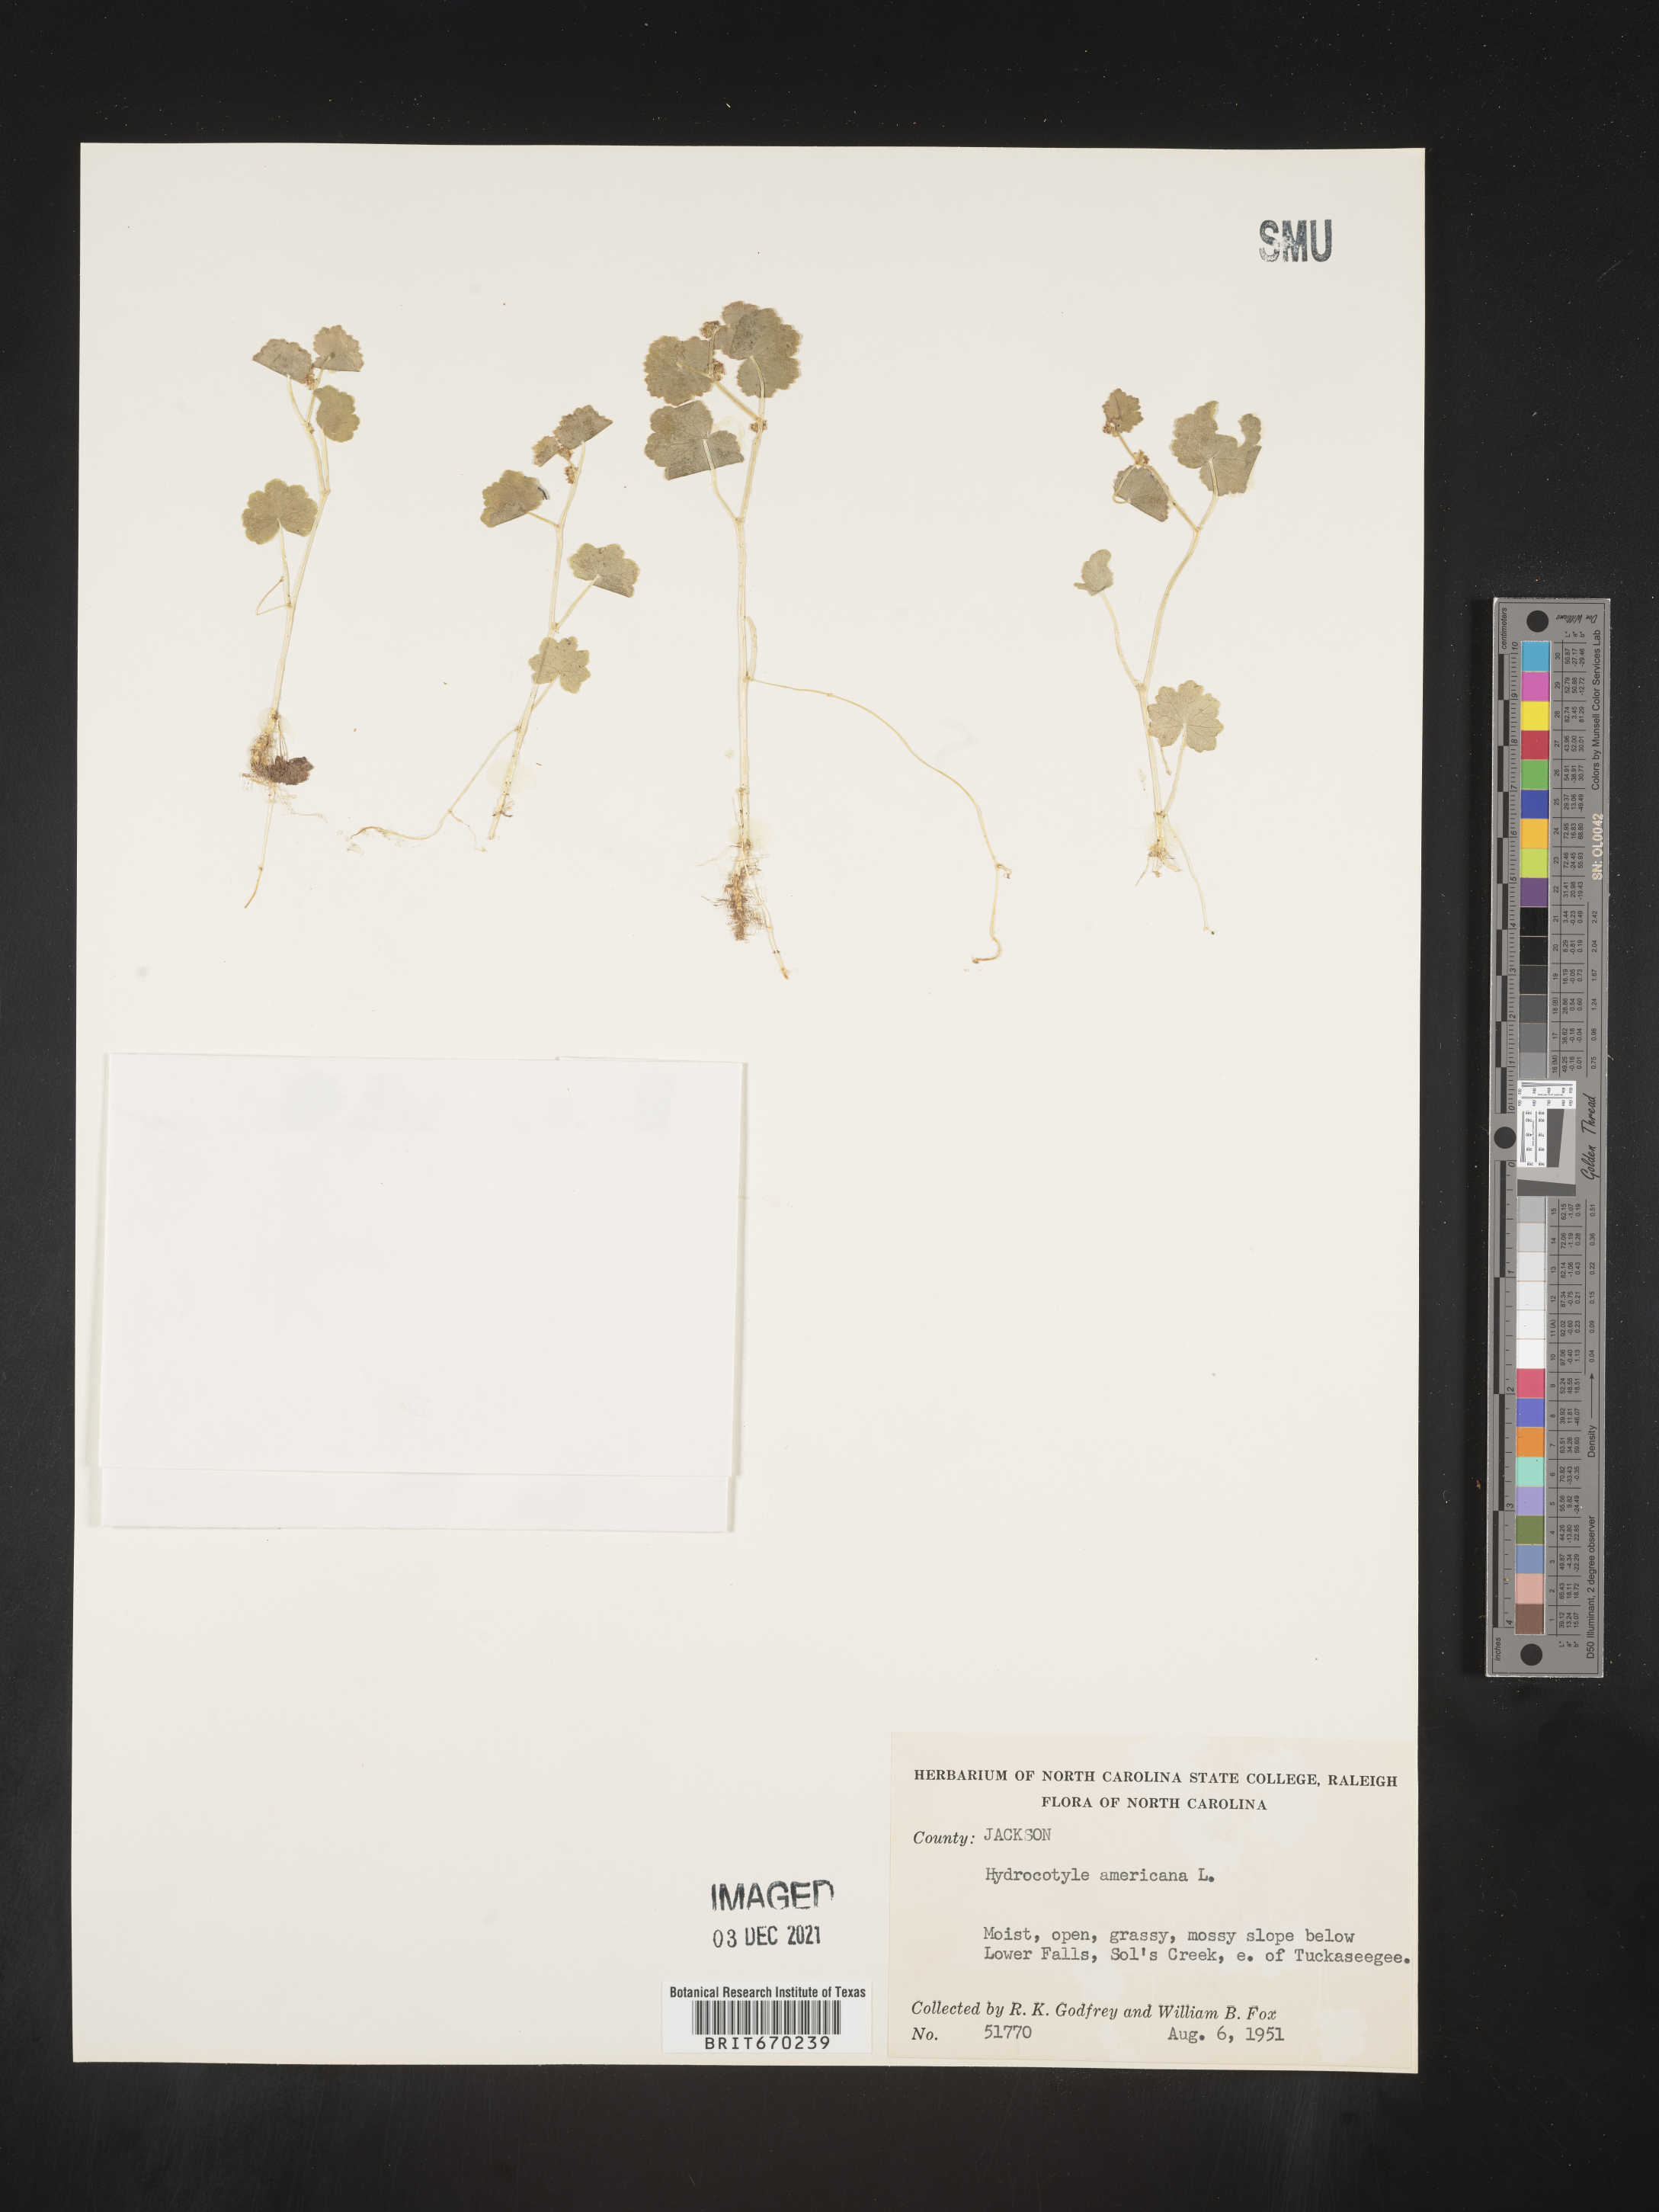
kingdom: Plantae
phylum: Tracheophyta
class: Magnoliopsida
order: Apiales
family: Araliaceae
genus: Hydrocotyle
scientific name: Hydrocotyle
